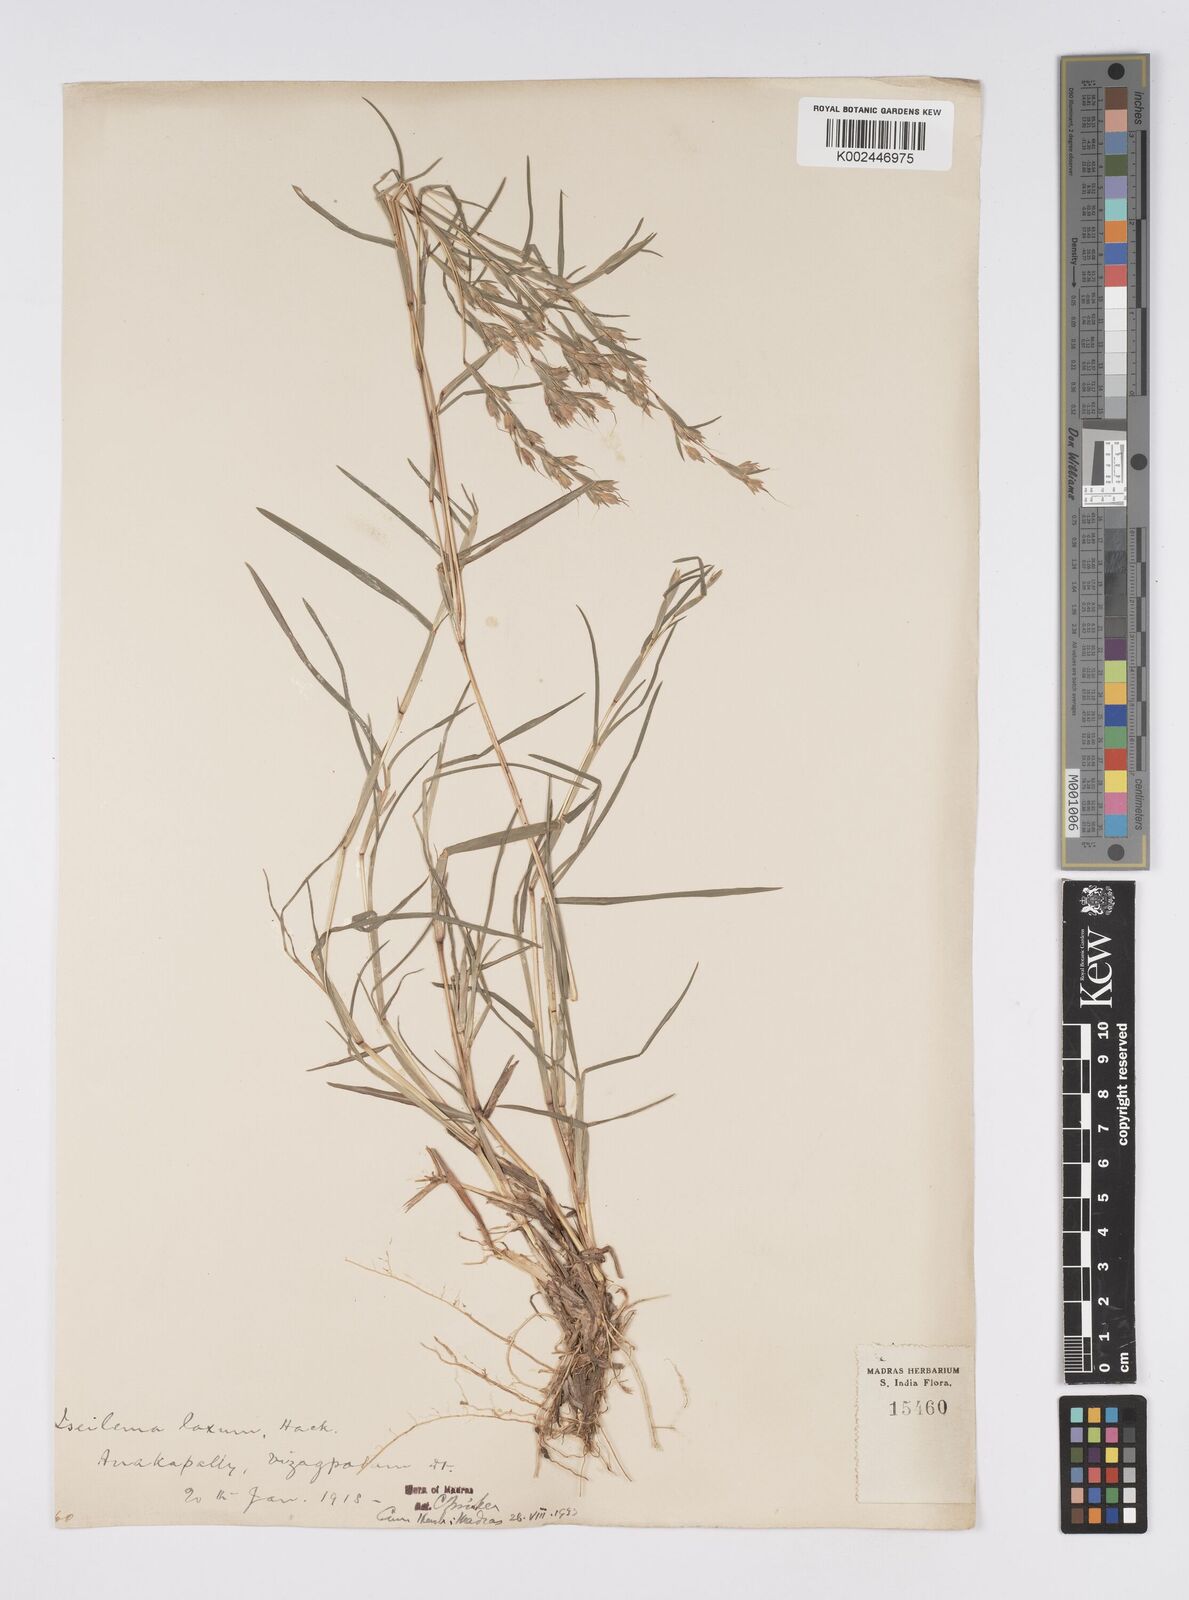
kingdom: Plantae
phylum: Tracheophyta
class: Liliopsida
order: Poales
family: Poaceae
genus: Iseilema
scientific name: Iseilema prostratum
